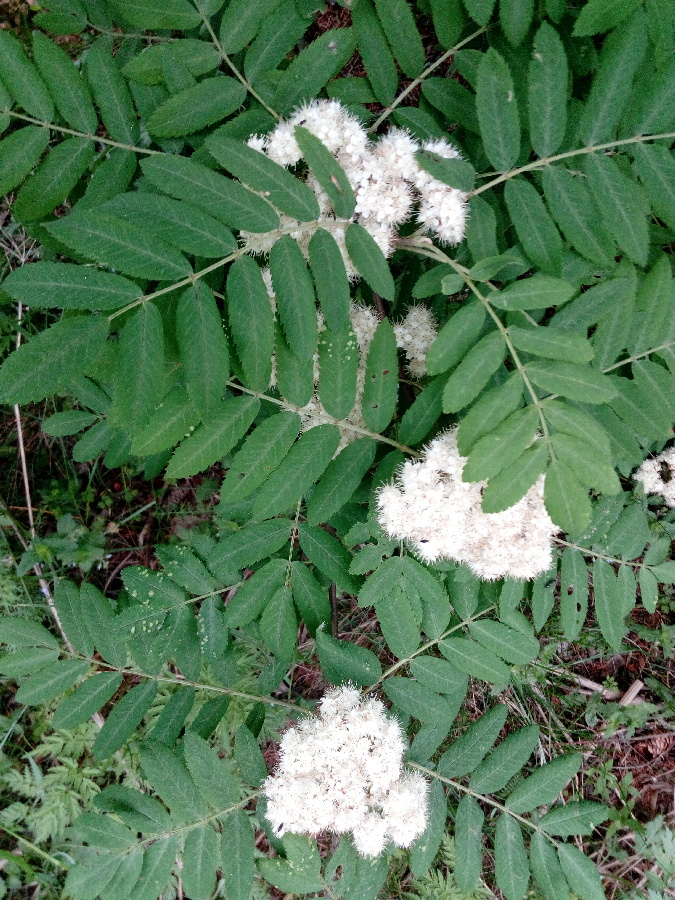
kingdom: Plantae
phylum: Tracheophyta
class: Magnoliopsida
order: Rosales
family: Rosaceae
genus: Sorbus
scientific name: Sorbus aucuparia
